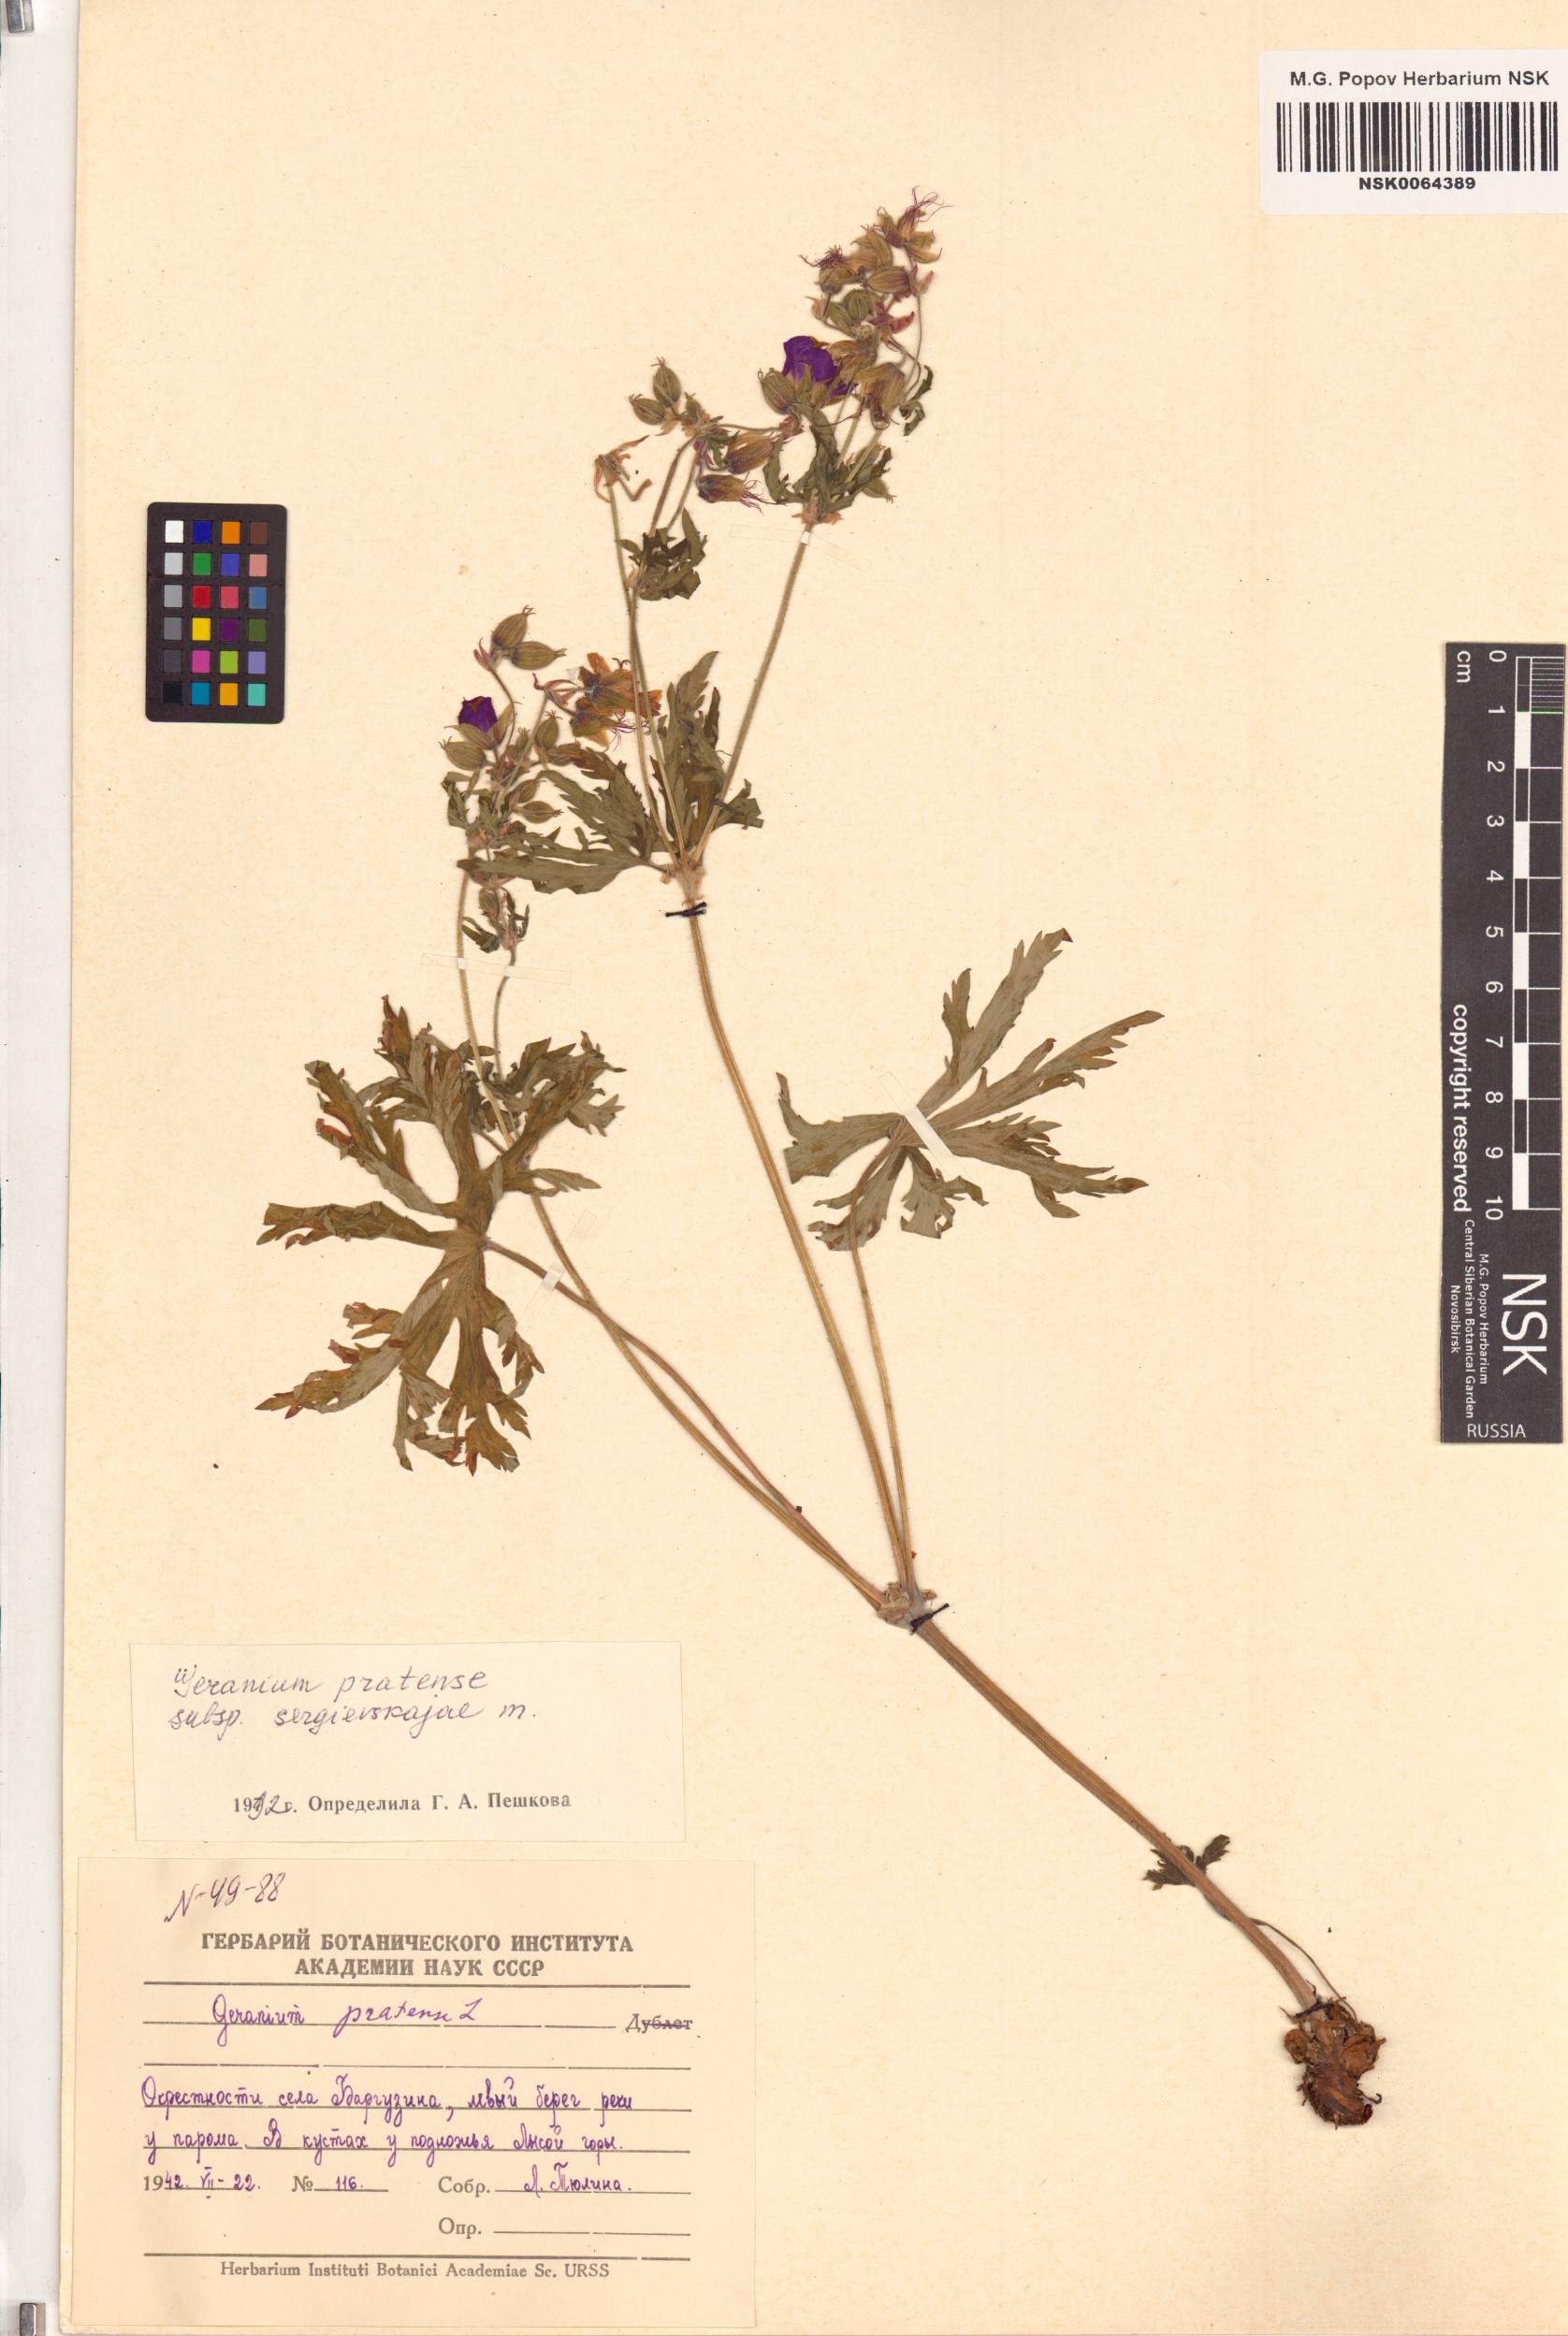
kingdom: Plantae
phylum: Tracheophyta
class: Magnoliopsida
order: Geraniales
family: Geraniaceae
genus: Geranium
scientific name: Geranium pratense
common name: Meadow crane's-bill
